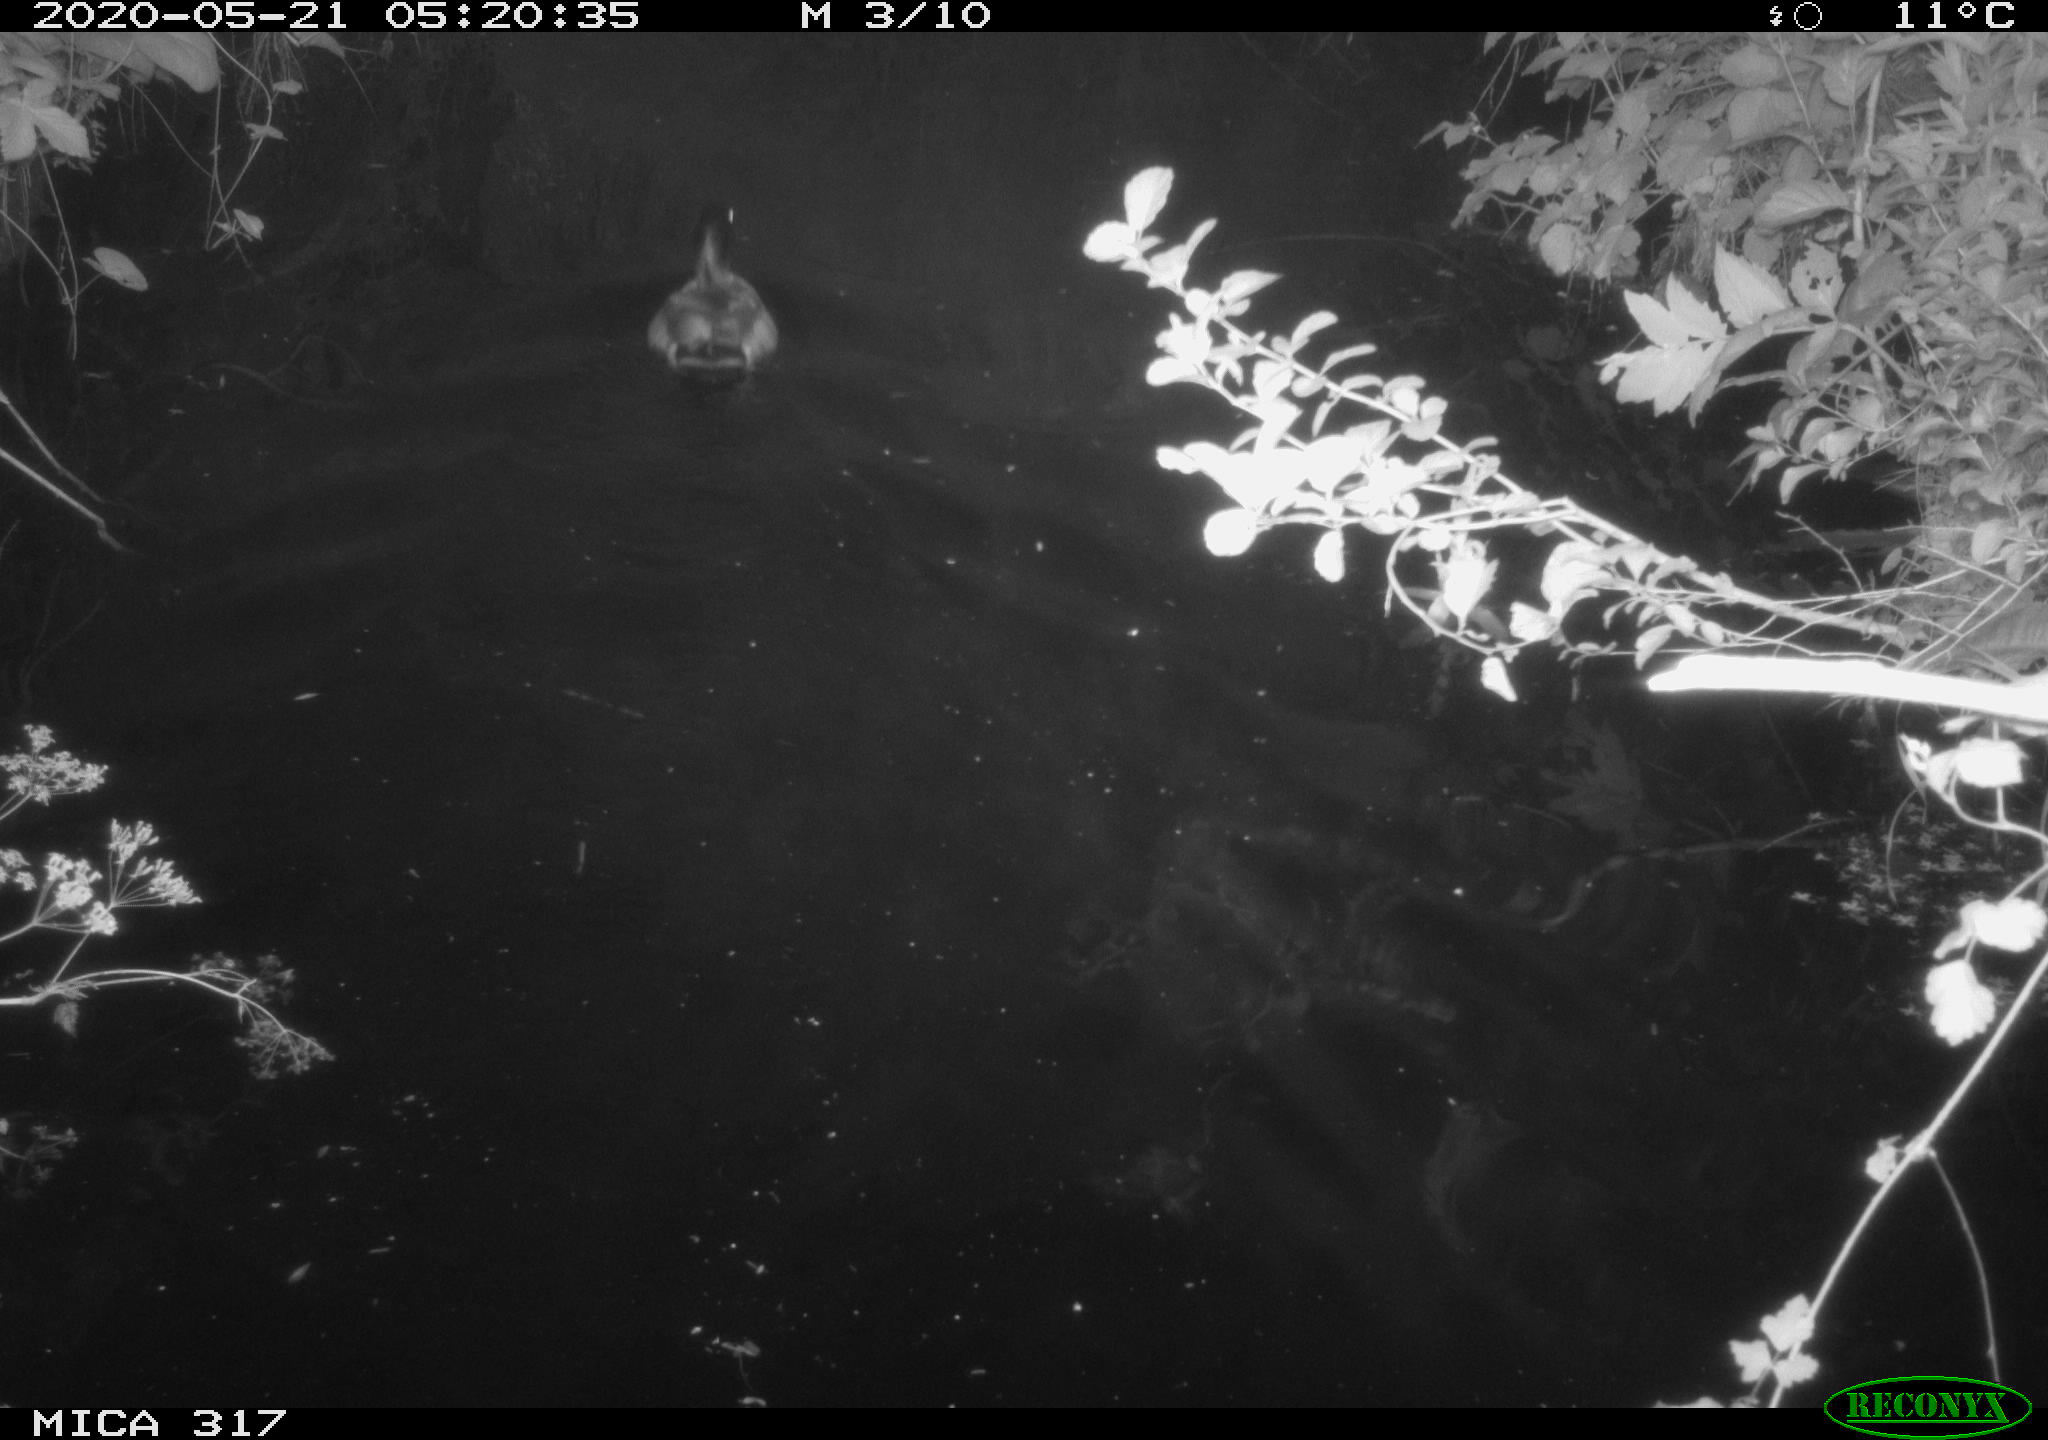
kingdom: Animalia
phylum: Chordata
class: Aves
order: Anseriformes
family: Anatidae
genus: Anas
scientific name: Anas platyrhynchos
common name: Mallard
